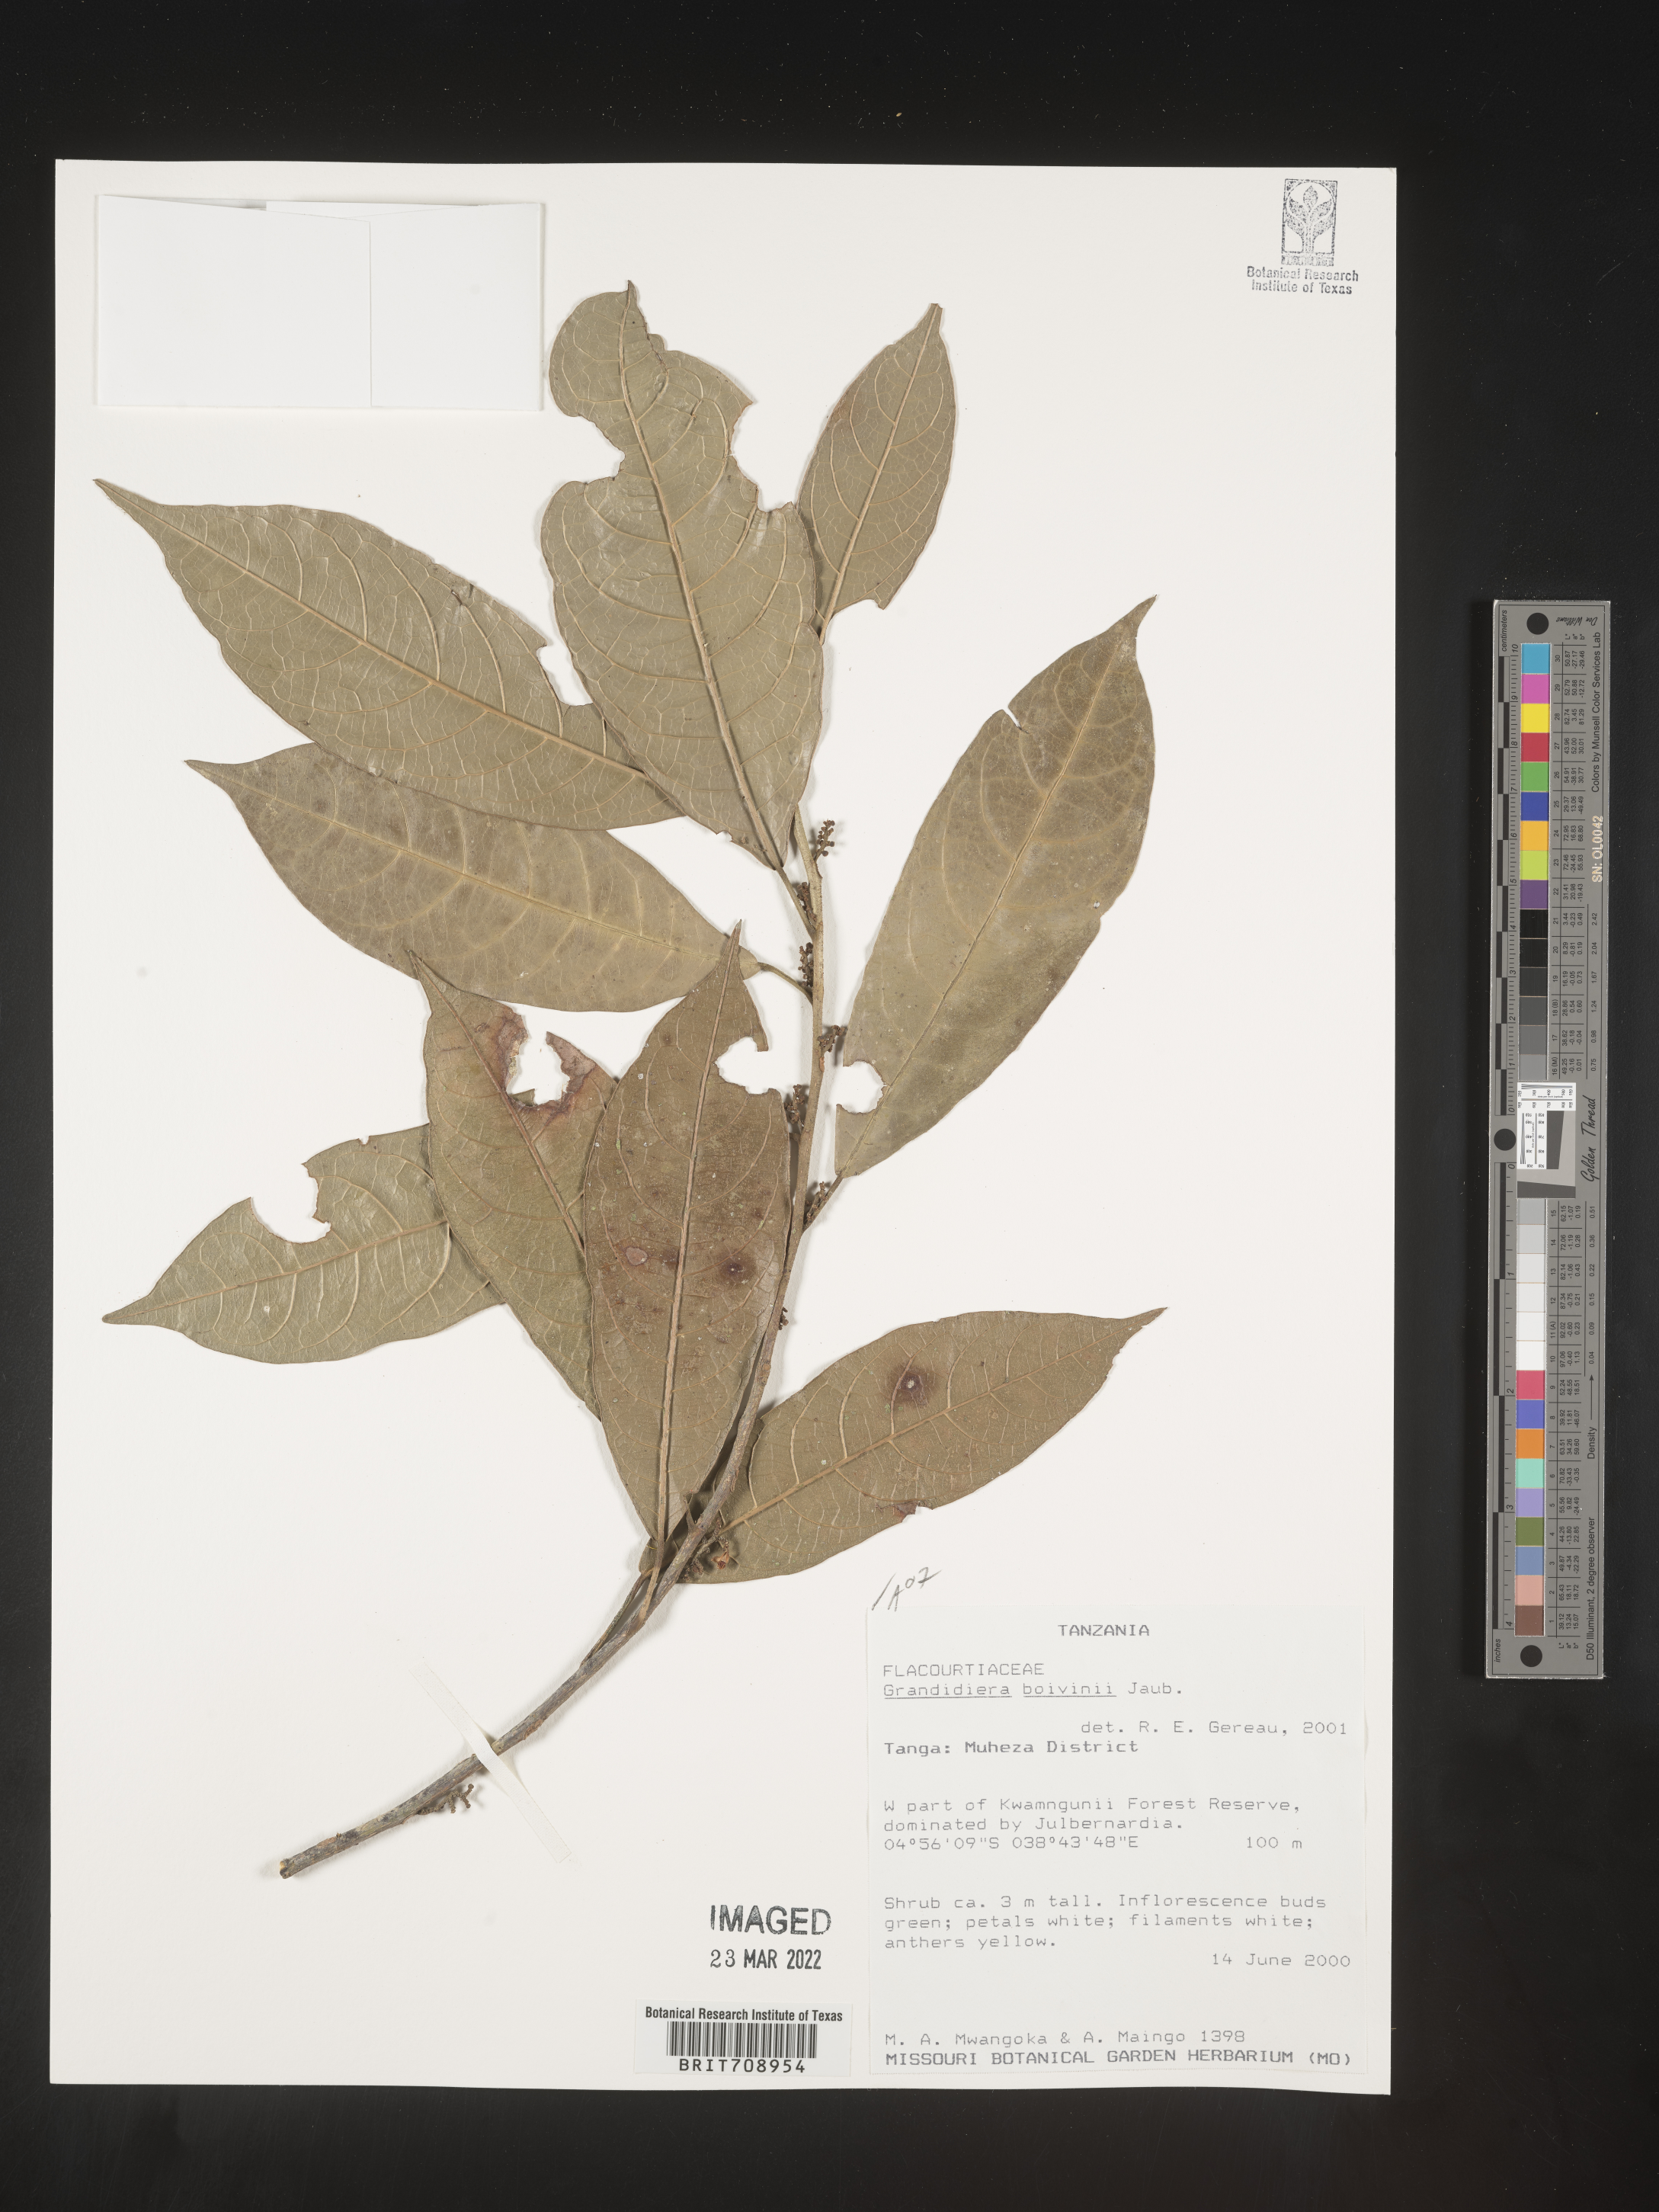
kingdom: Plantae
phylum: Tracheophyta
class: Magnoliopsida
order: Malpighiales
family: Achariaceae
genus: Grandidiera
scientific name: Grandidiera
